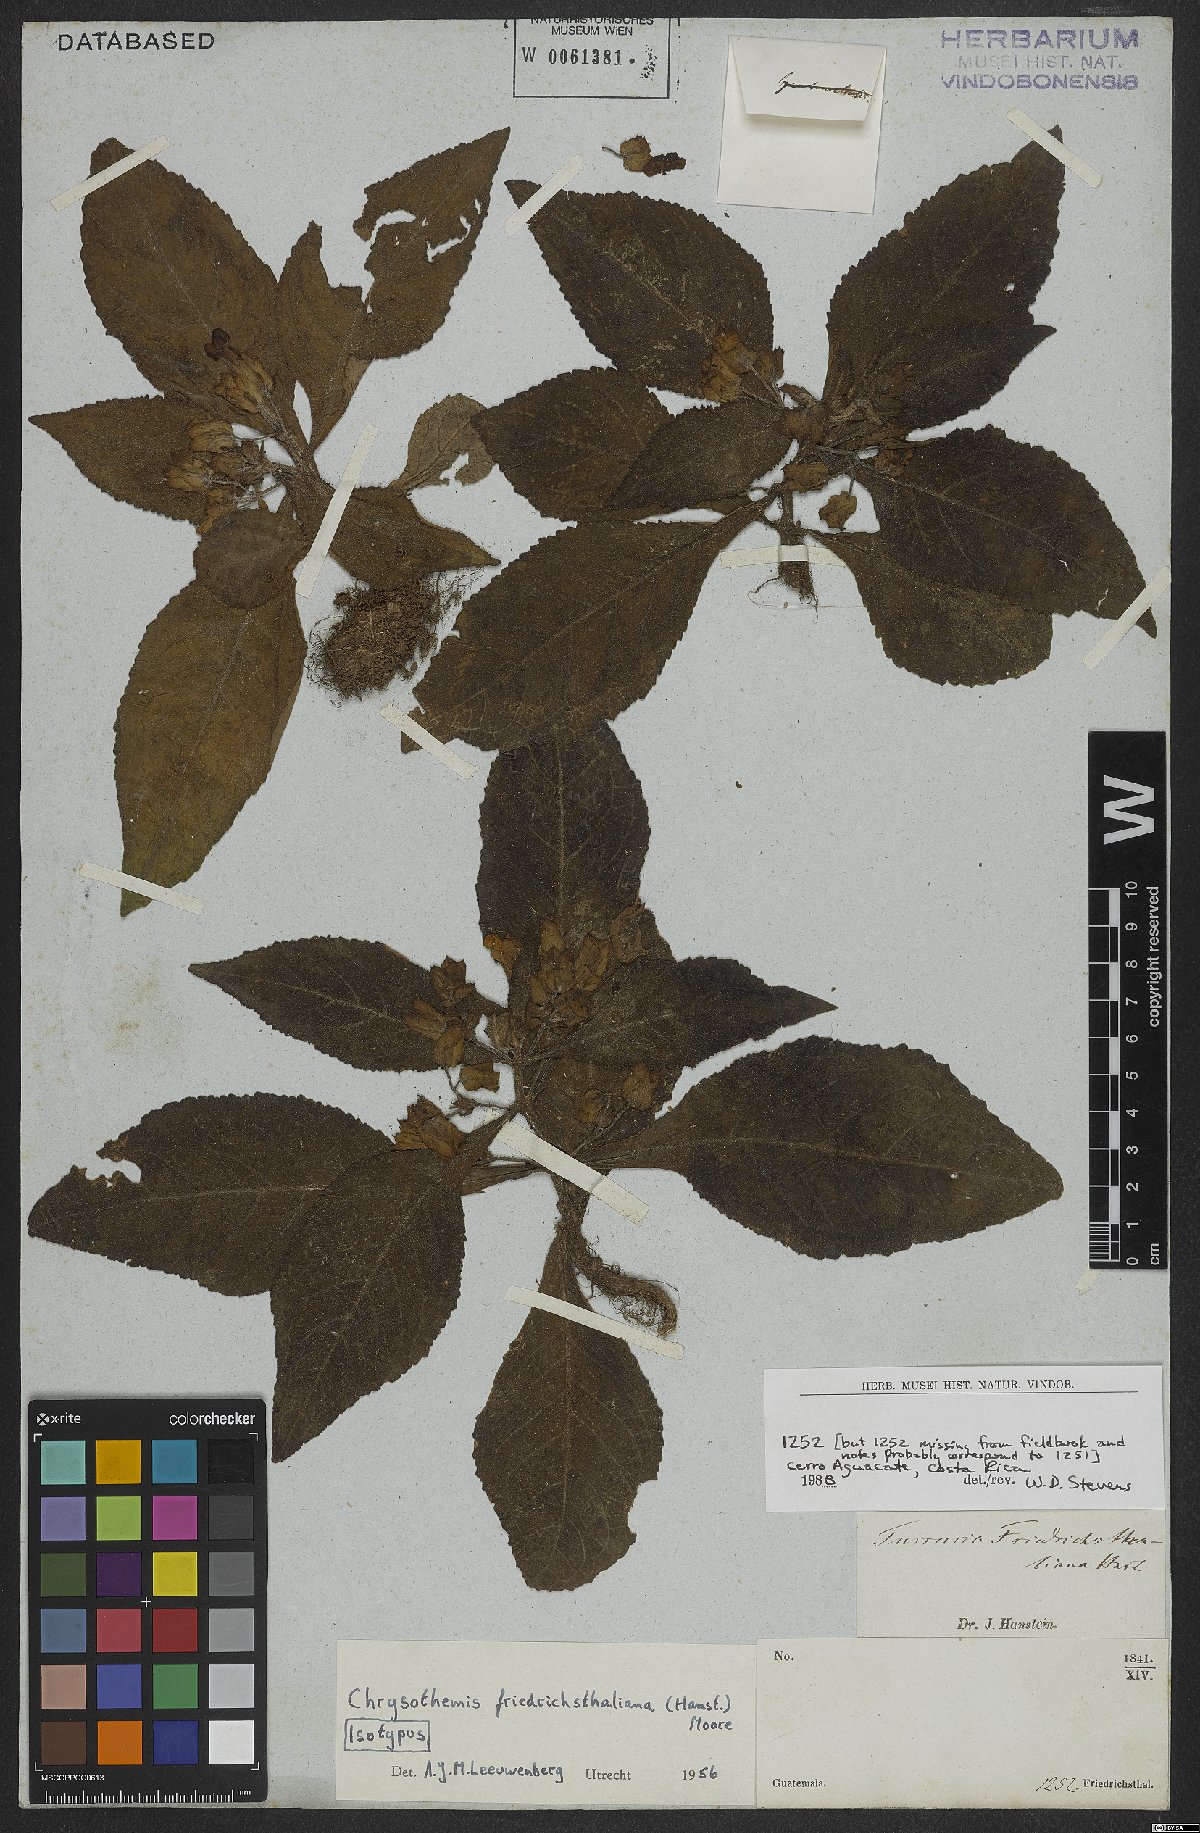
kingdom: Plantae
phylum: Tracheophyta
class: Magnoliopsida
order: Lamiales
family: Gesneriaceae
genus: Chrysothemis
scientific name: Chrysothemis friedrichsthaliana
